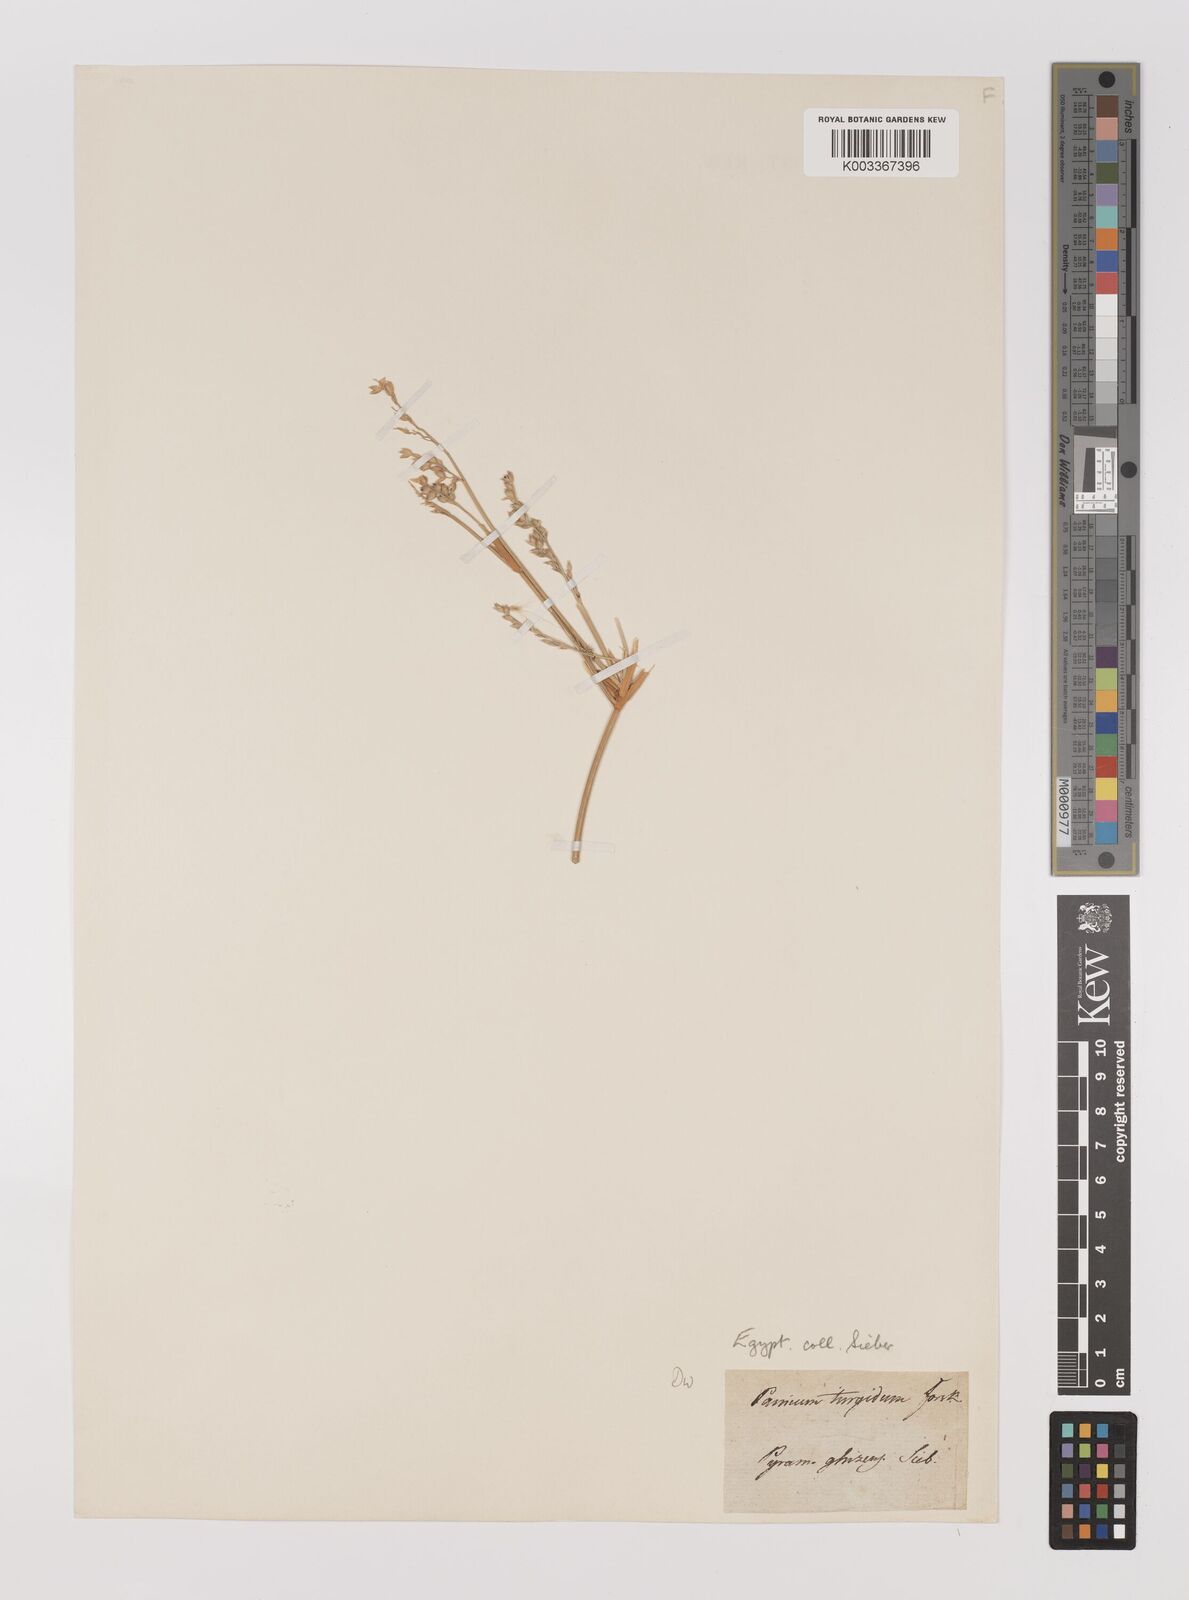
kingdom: Plantae
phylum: Tracheophyta
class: Liliopsida
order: Poales
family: Poaceae
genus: Panicum
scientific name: Panicum turgidum
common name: Desert grass
